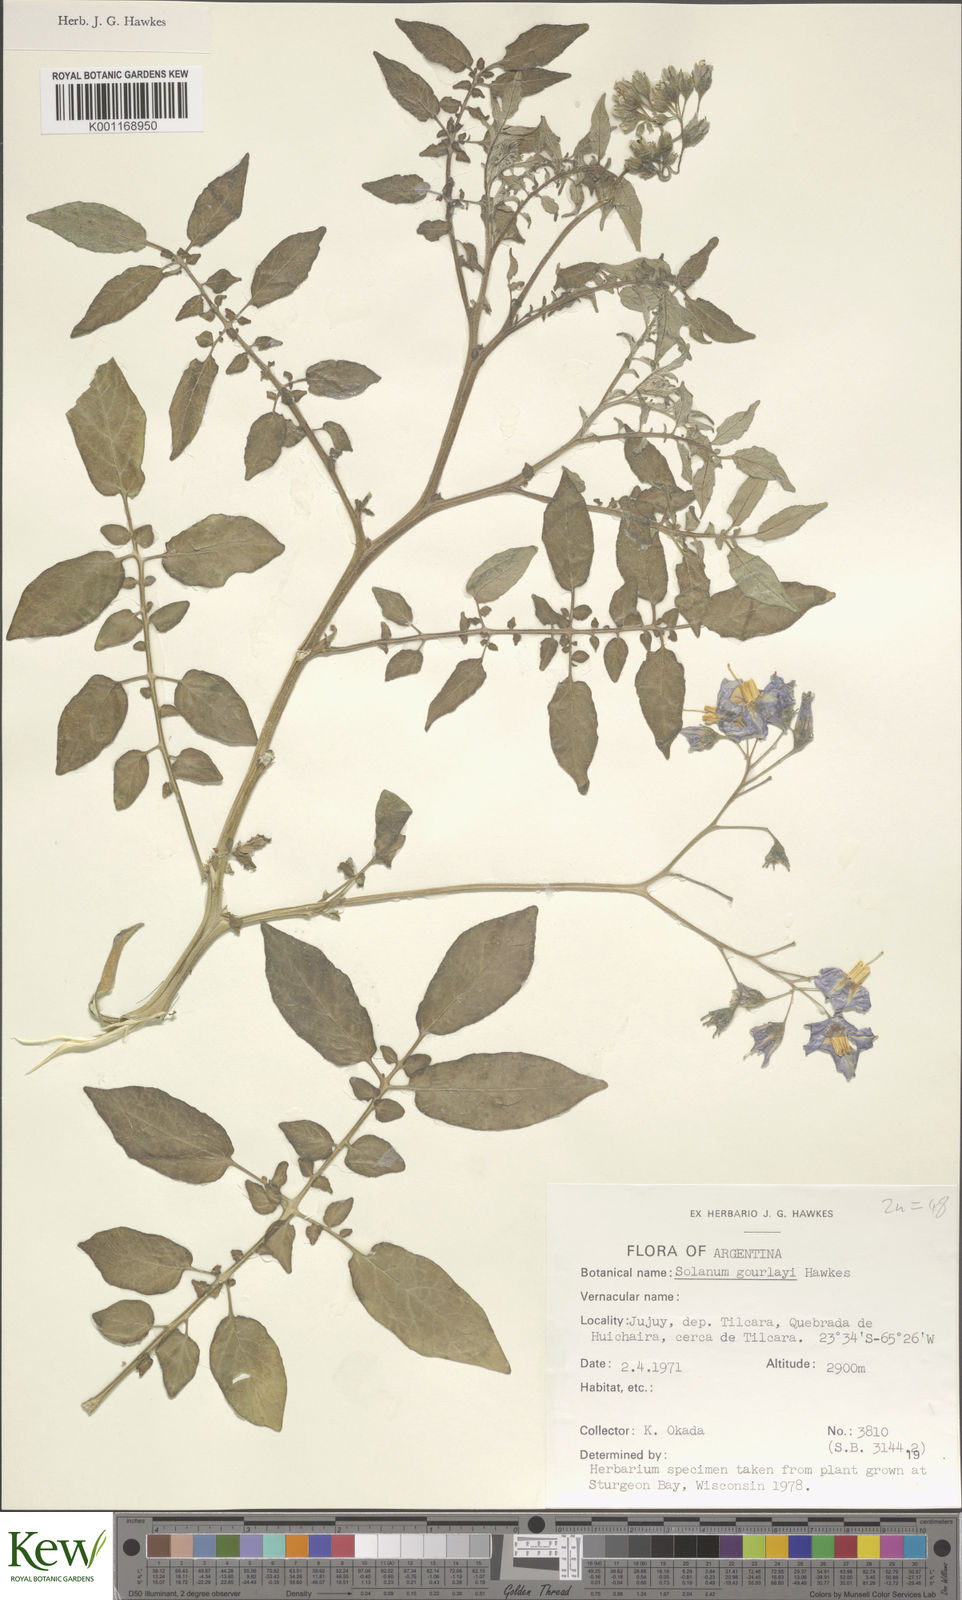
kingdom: Plantae
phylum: Tracheophyta
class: Magnoliopsida
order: Solanales
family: Solanaceae
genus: Solanum
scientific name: Solanum brevicaule
